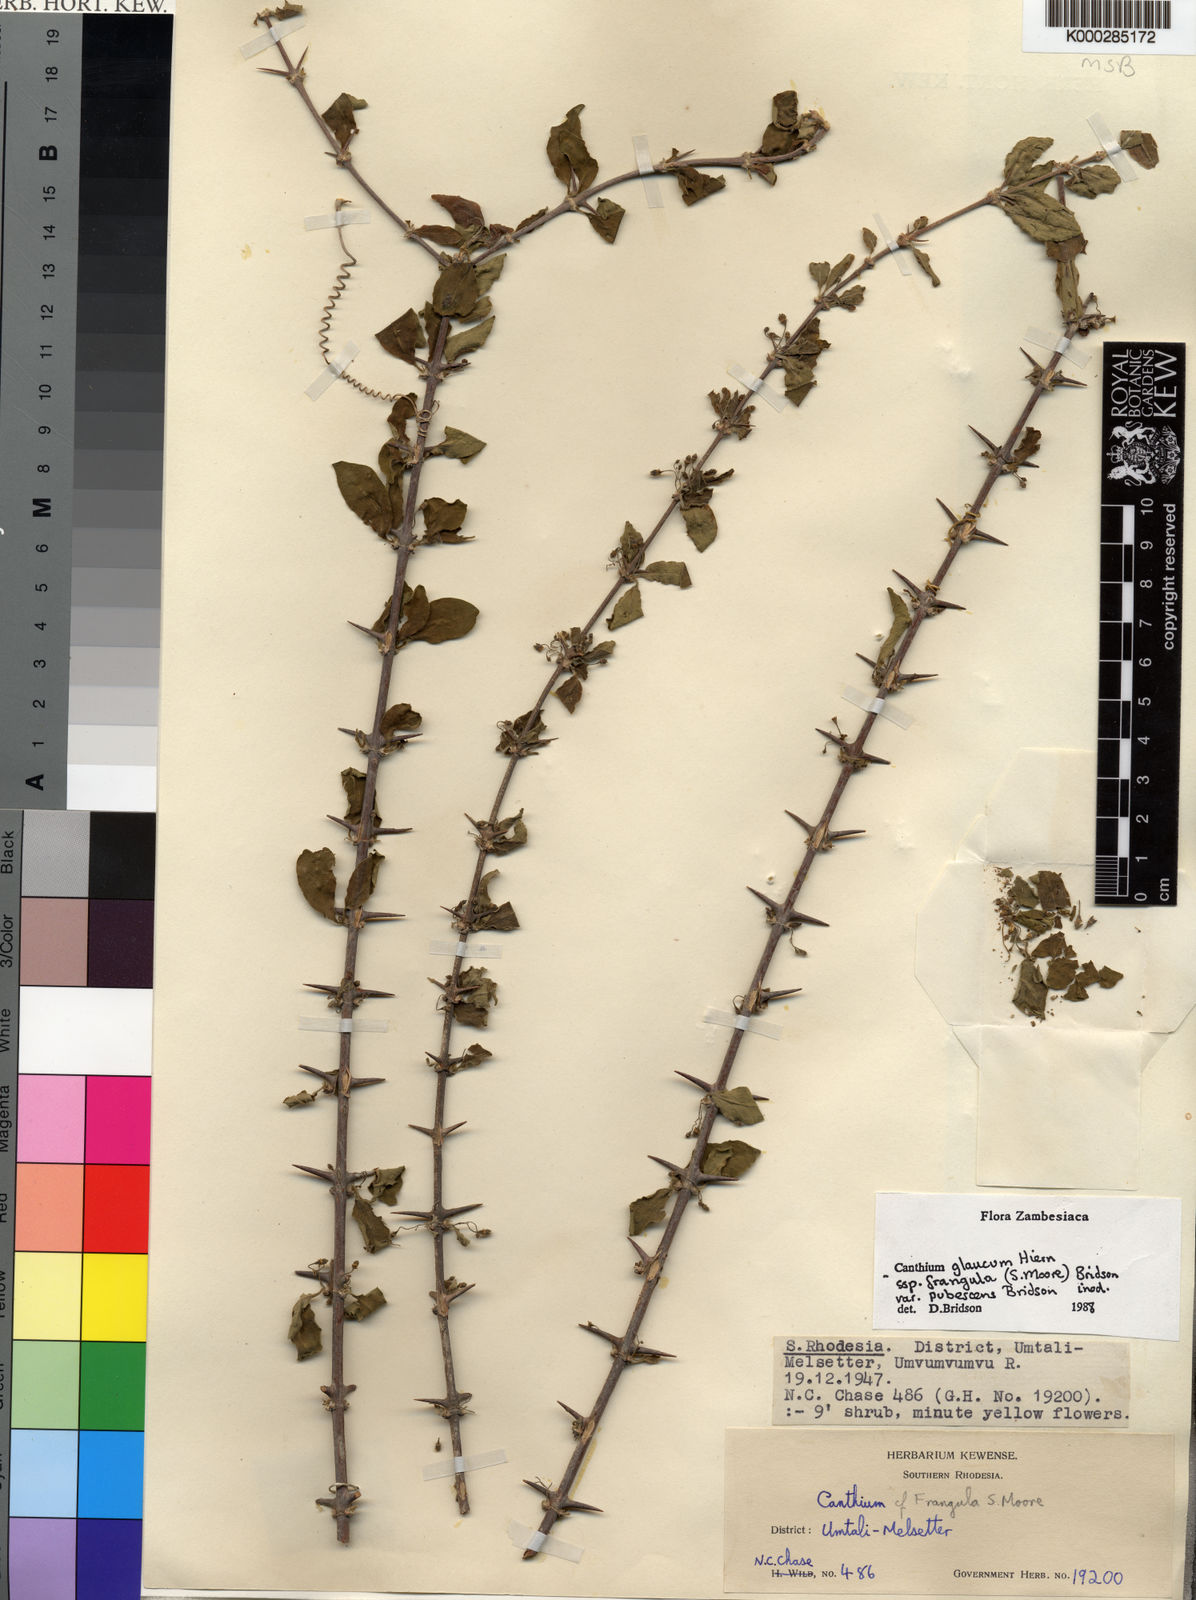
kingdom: Plantae
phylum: Tracheophyta
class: Magnoliopsida
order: Gentianales
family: Rubiaceae
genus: Canthium
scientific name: Canthium glaucum
